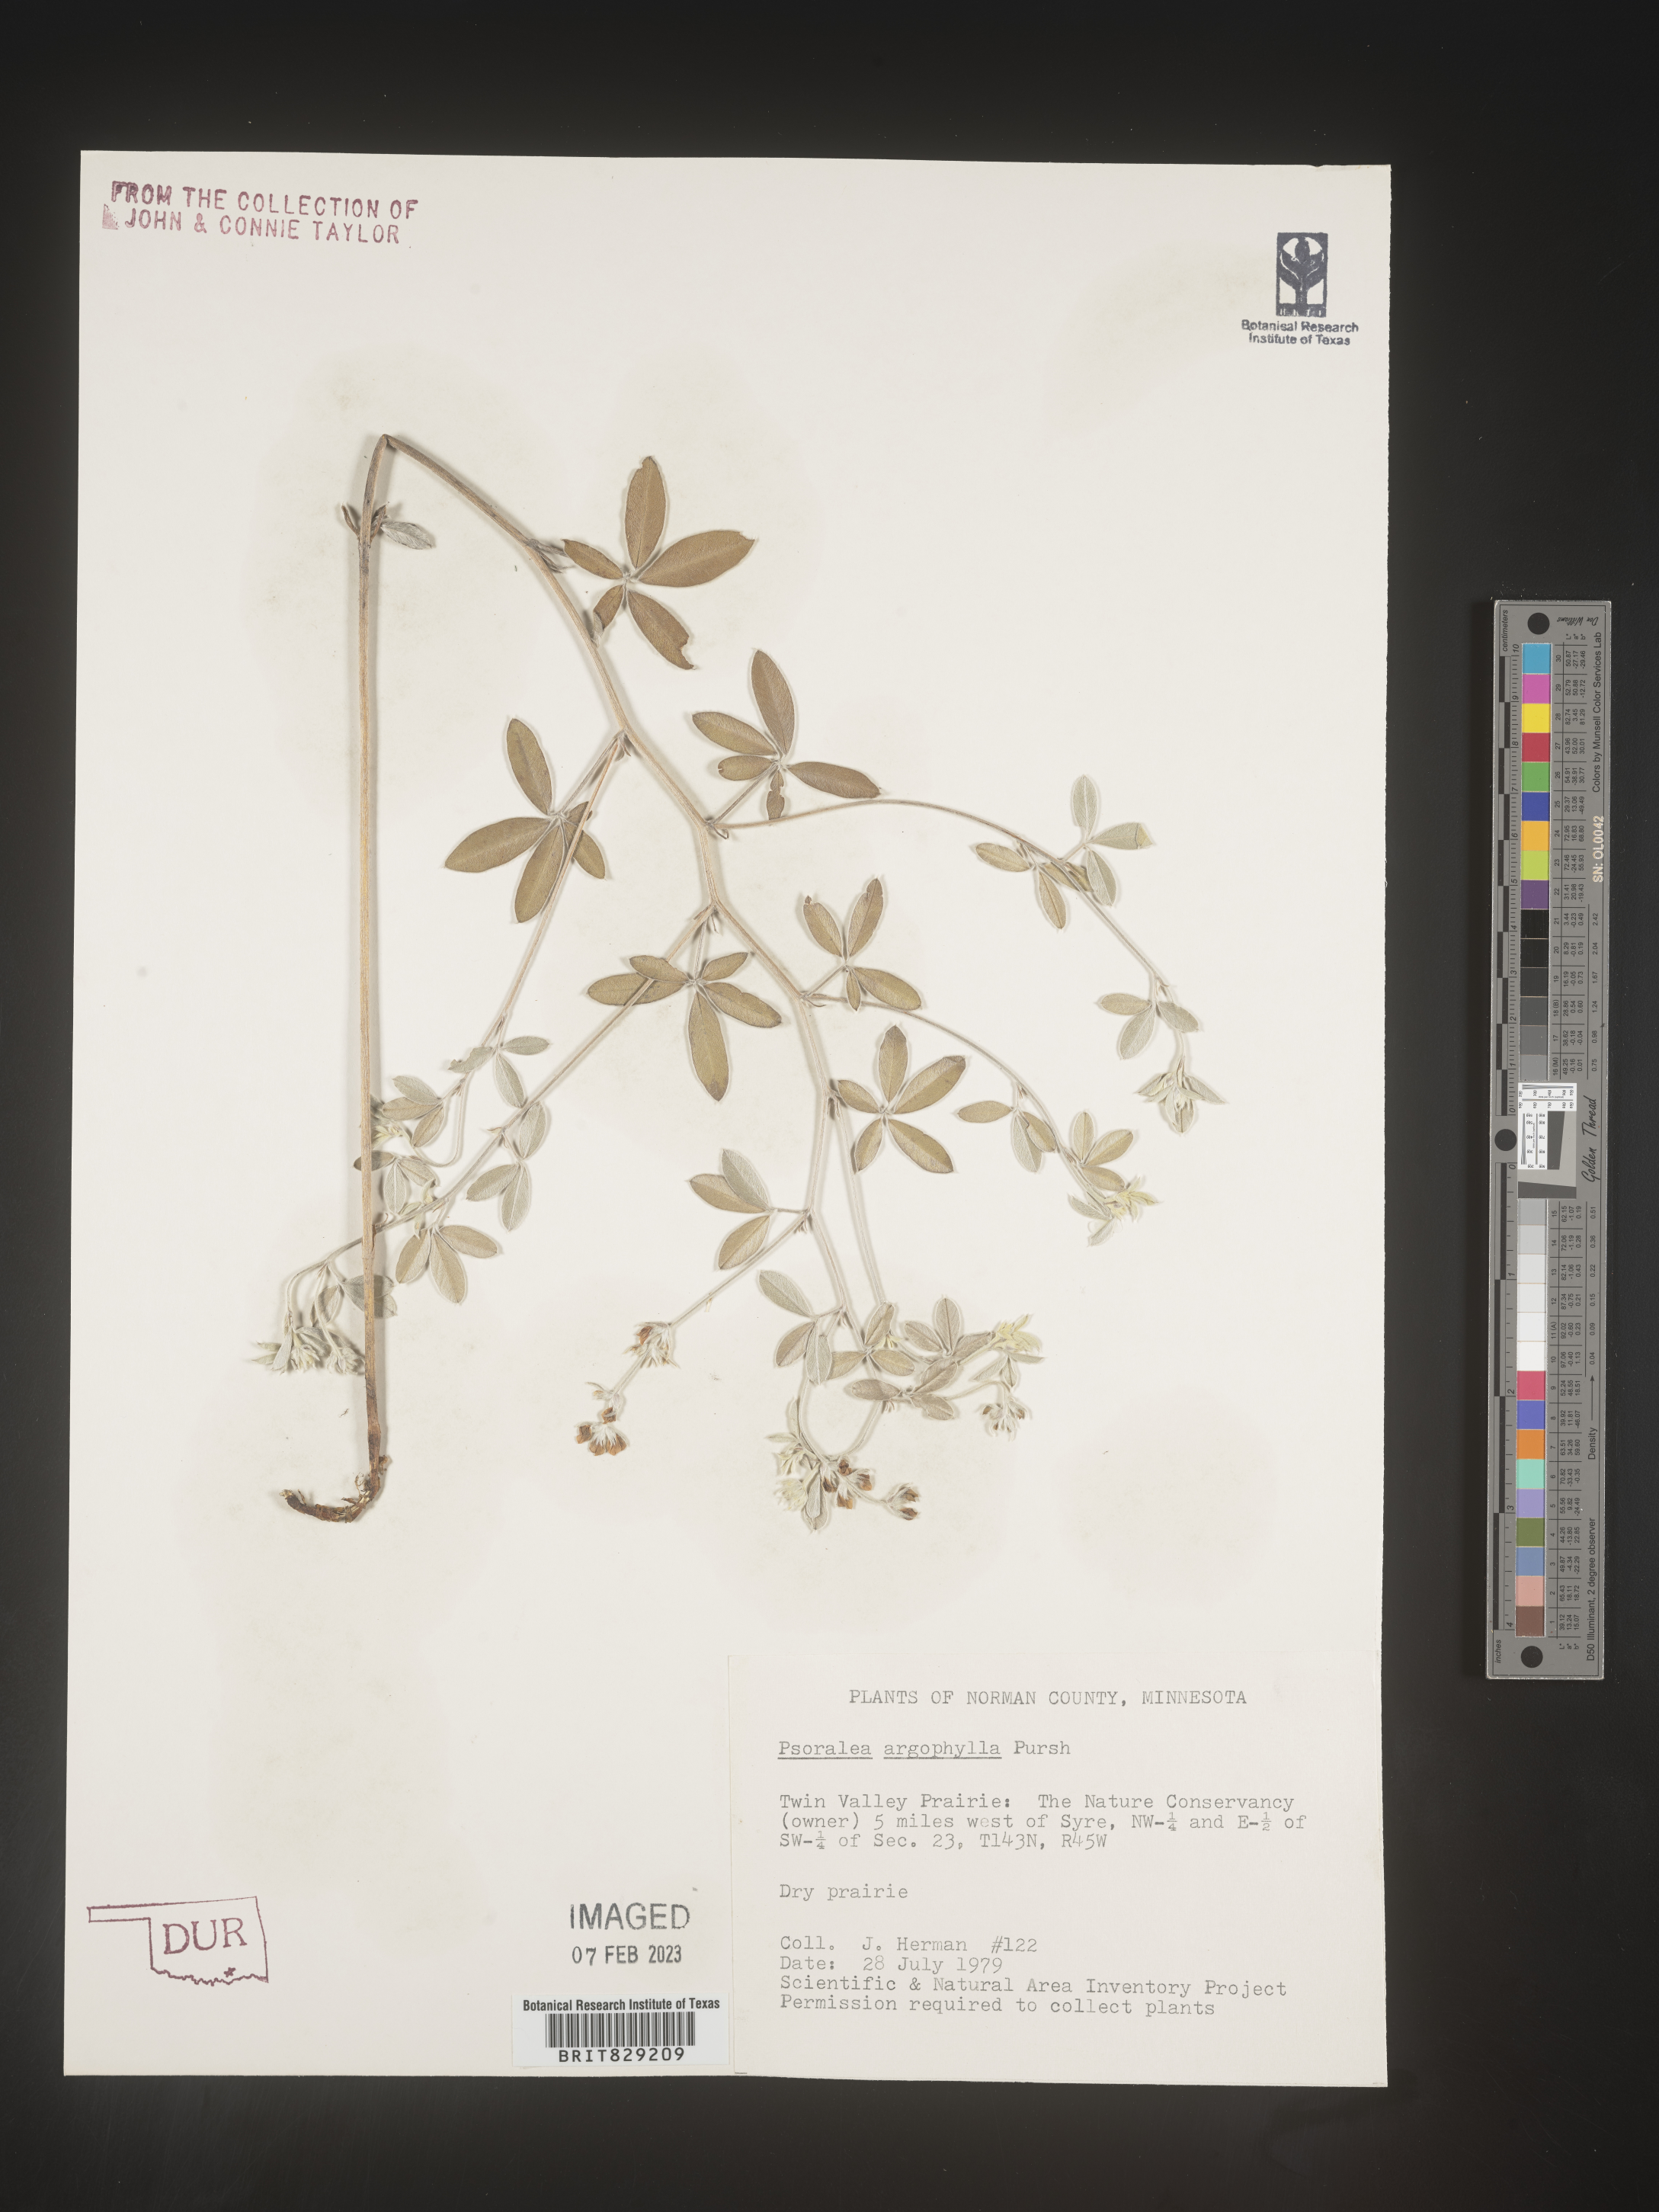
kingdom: Plantae
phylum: Tracheophyta
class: Magnoliopsida
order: Fabales
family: Fabaceae
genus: Pediomelum
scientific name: Pediomelum argophyllum
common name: Silver-leaved indian breadroot
